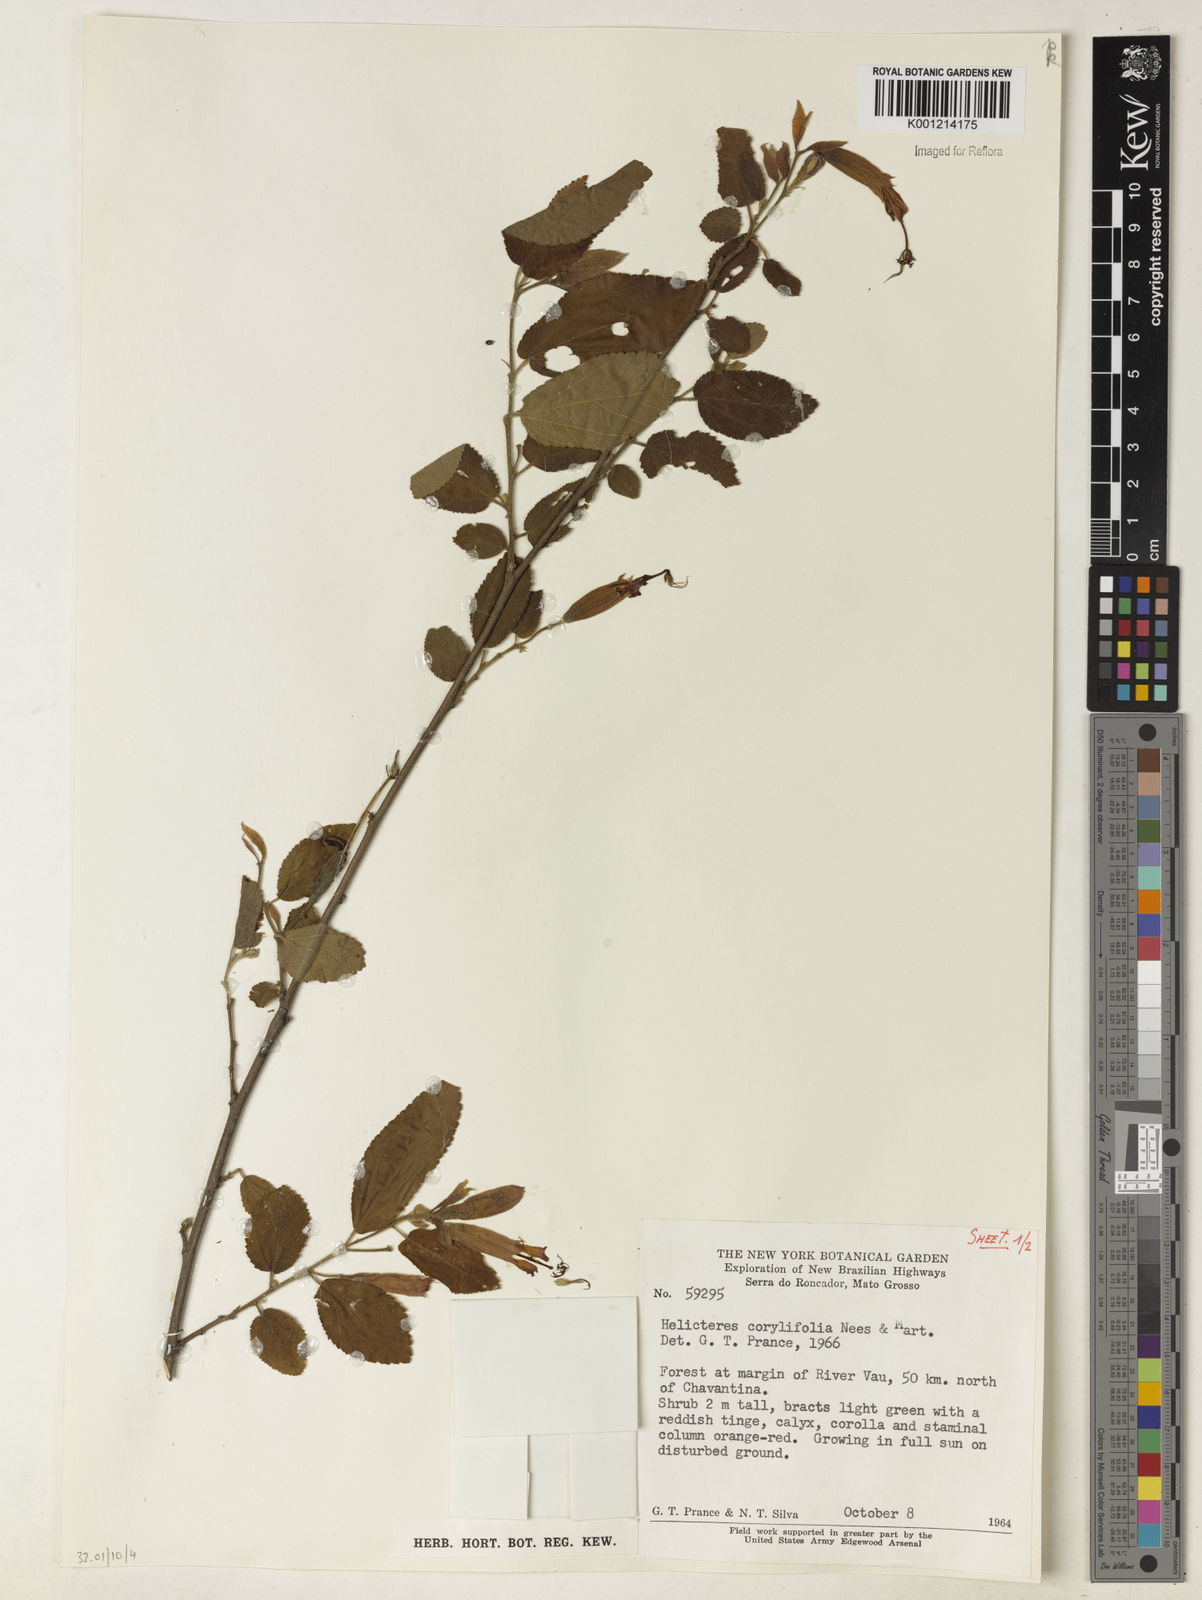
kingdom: Plantae
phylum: Tracheophyta
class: Magnoliopsida
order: Malvales
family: Malvaceae
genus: Helicteres
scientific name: Helicteres corylifolia
